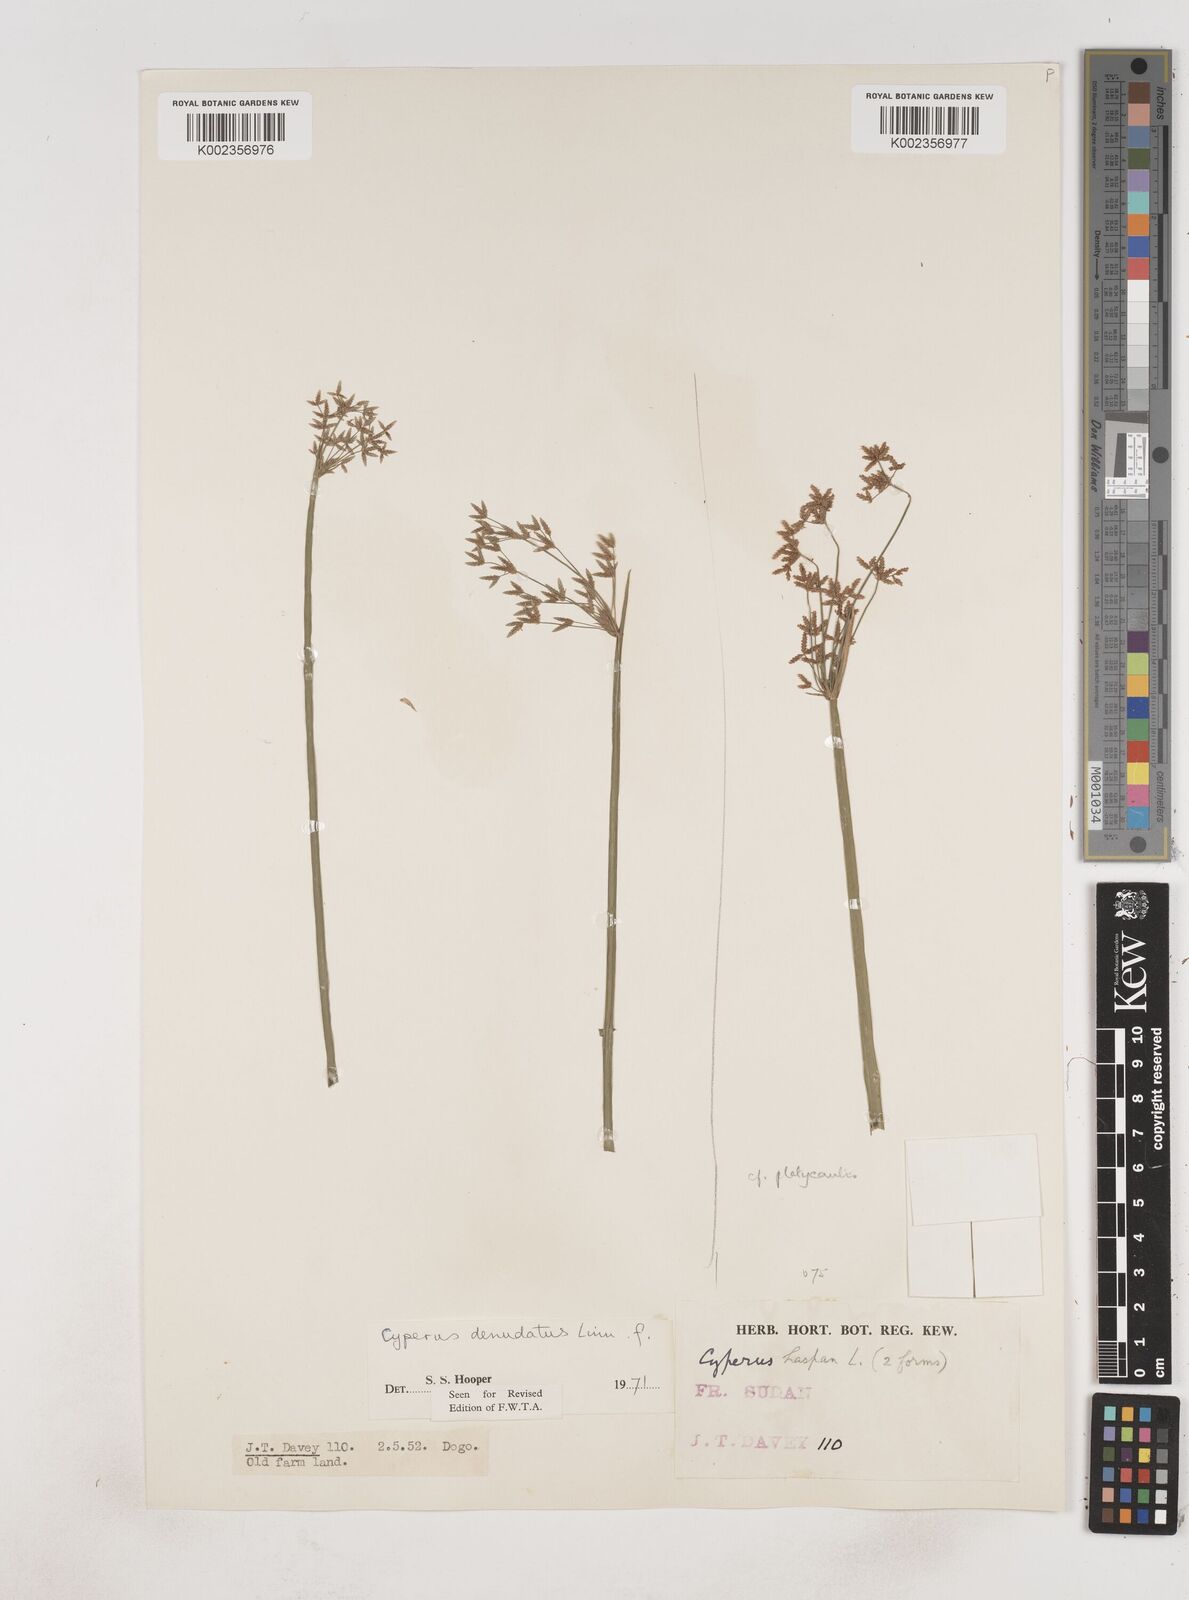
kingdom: Plantae
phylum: Tracheophyta
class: Liliopsida
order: Poales
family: Cyperaceae
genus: Cyperus
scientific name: Cyperus denudatus
